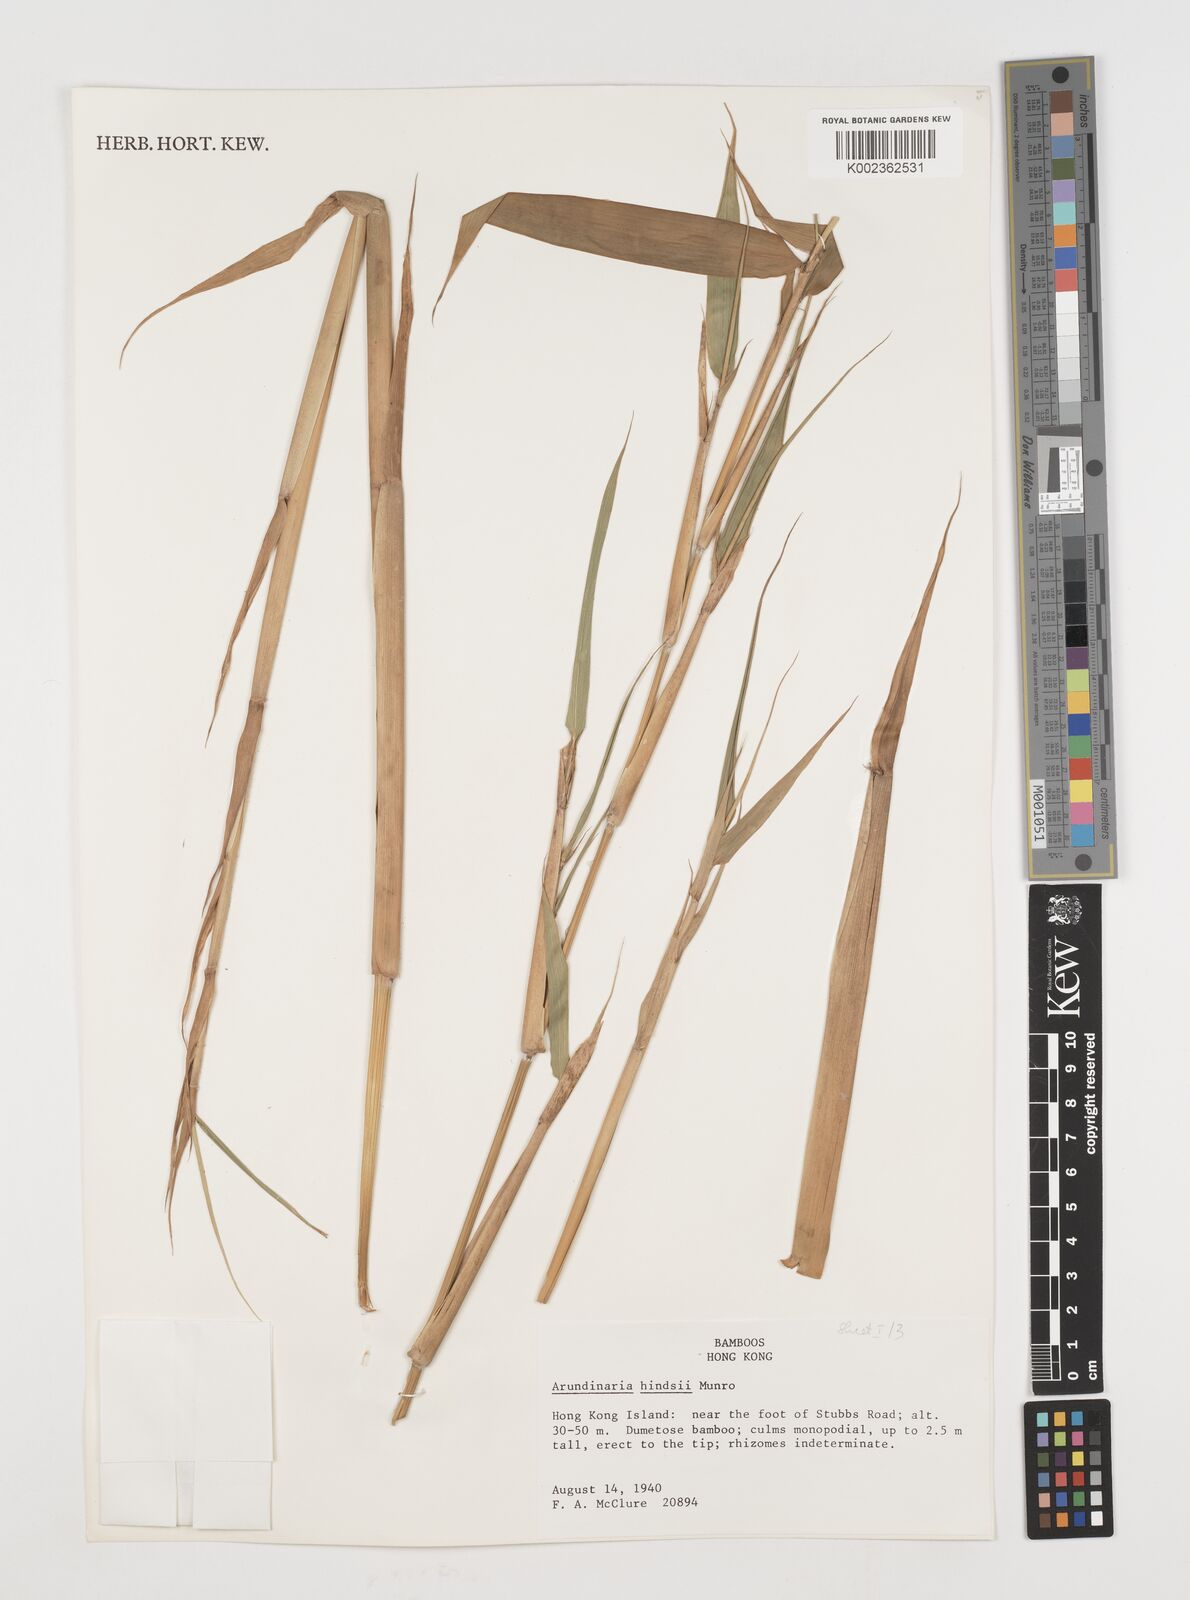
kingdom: Plantae
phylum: Tracheophyta
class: Liliopsida
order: Poales
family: Poaceae
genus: Pseudosasa
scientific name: Pseudosasa hindsii
